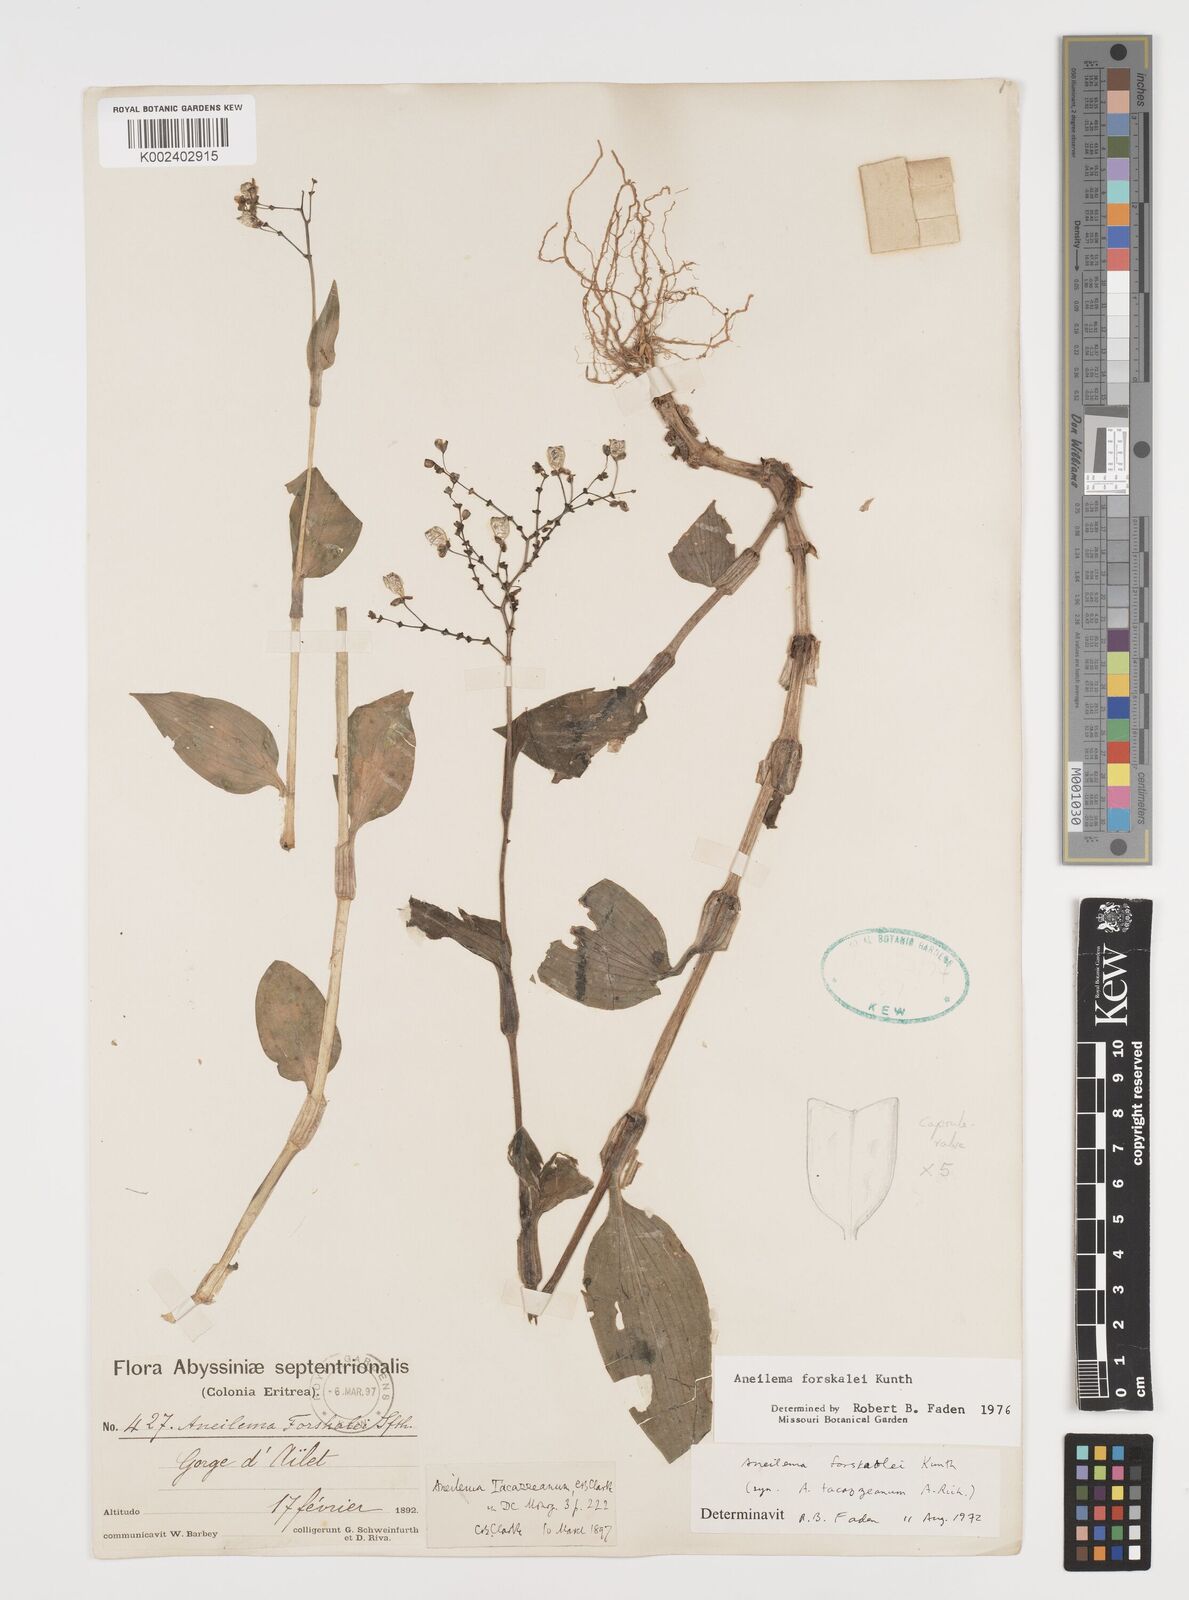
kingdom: Plantae
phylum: Tracheophyta
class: Liliopsida
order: Commelinales
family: Commelinaceae
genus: Aneilema
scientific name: Aneilema forskalii
